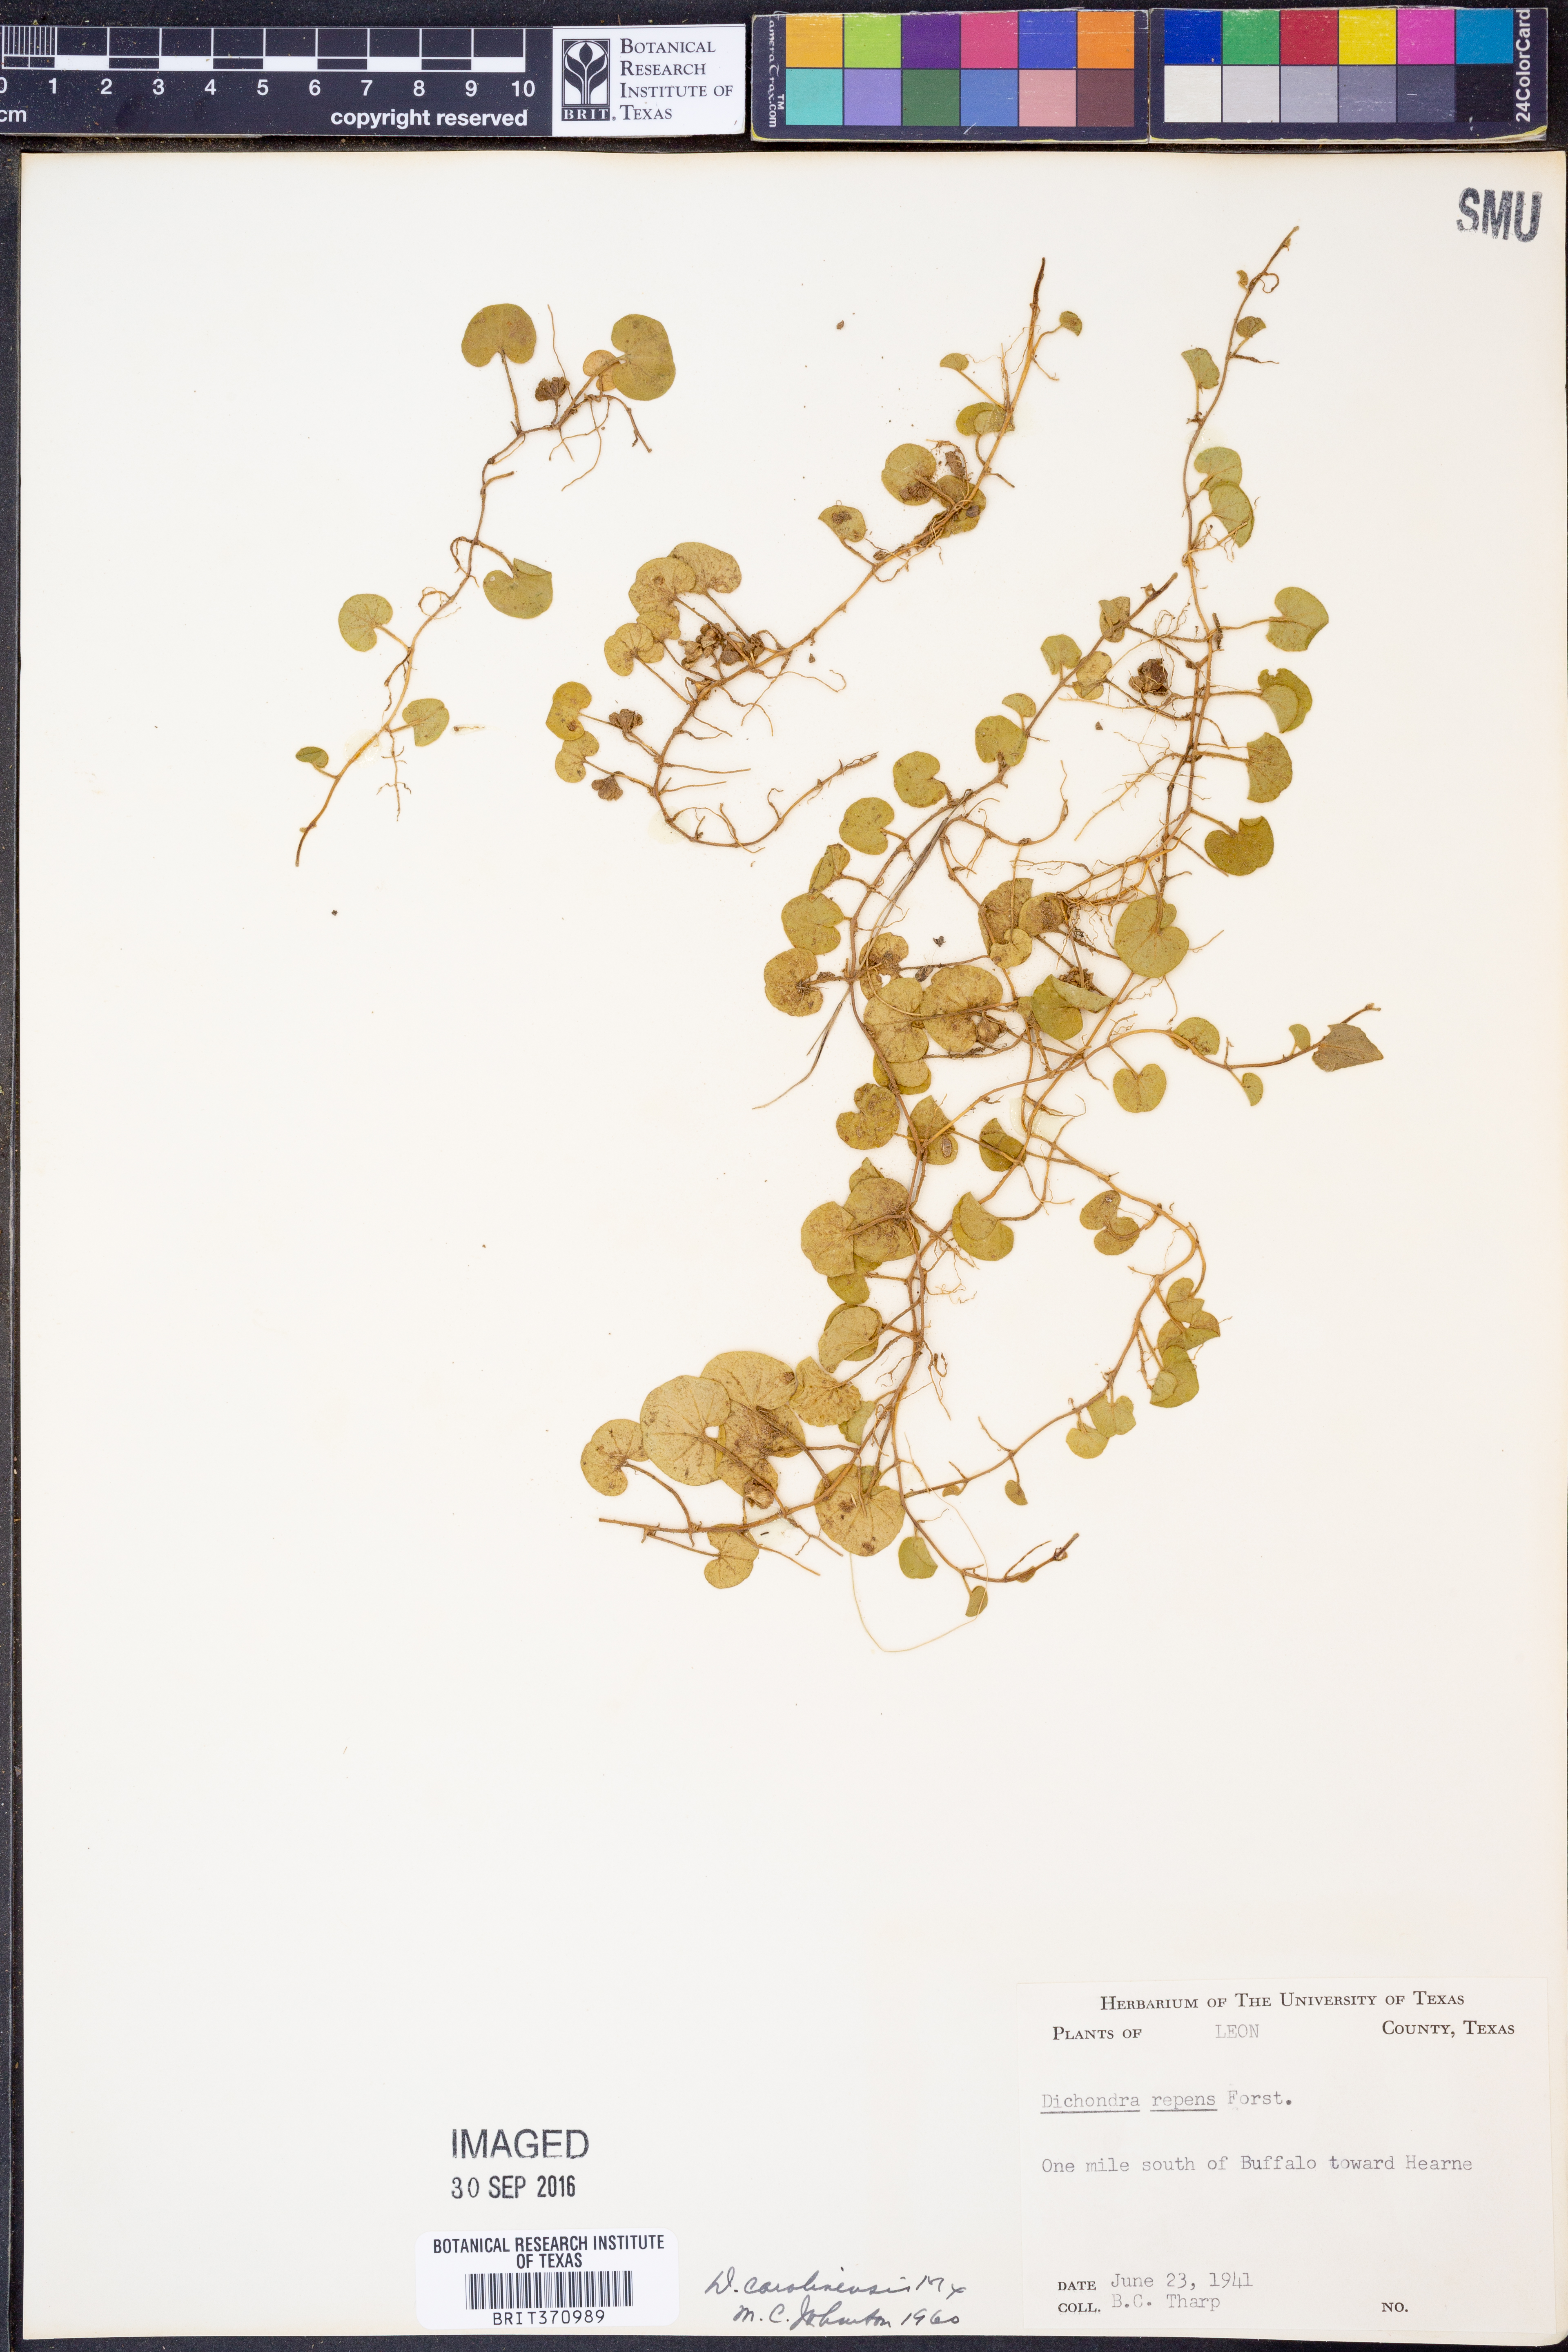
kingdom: Plantae
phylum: Tracheophyta
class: Magnoliopsida
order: Solanales
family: Convolvulaceae
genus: Dichondra
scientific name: Dichondra carolinensis
